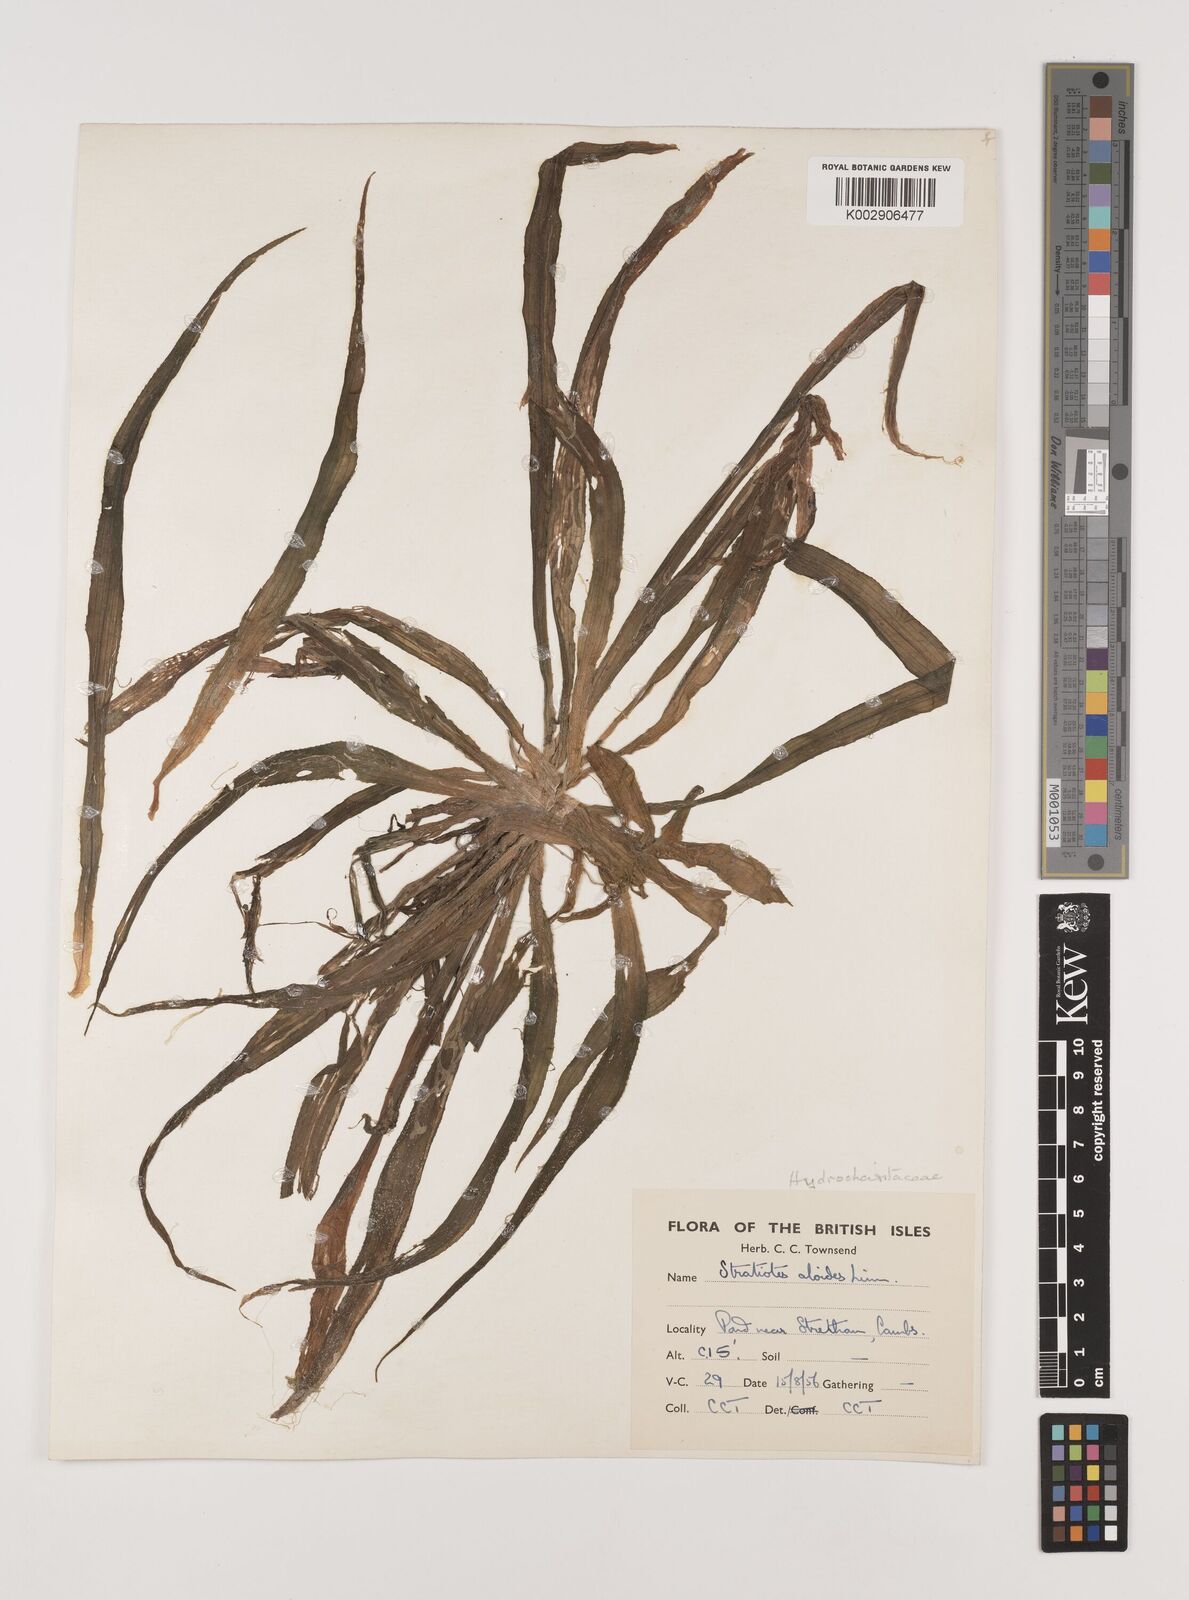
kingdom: Plantae
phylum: Tracheophyta
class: Liliopsida
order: Alismatales
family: Hydrocharitaceae
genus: Stratiotes
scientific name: Stratiotes aloides
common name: Water-soldier
